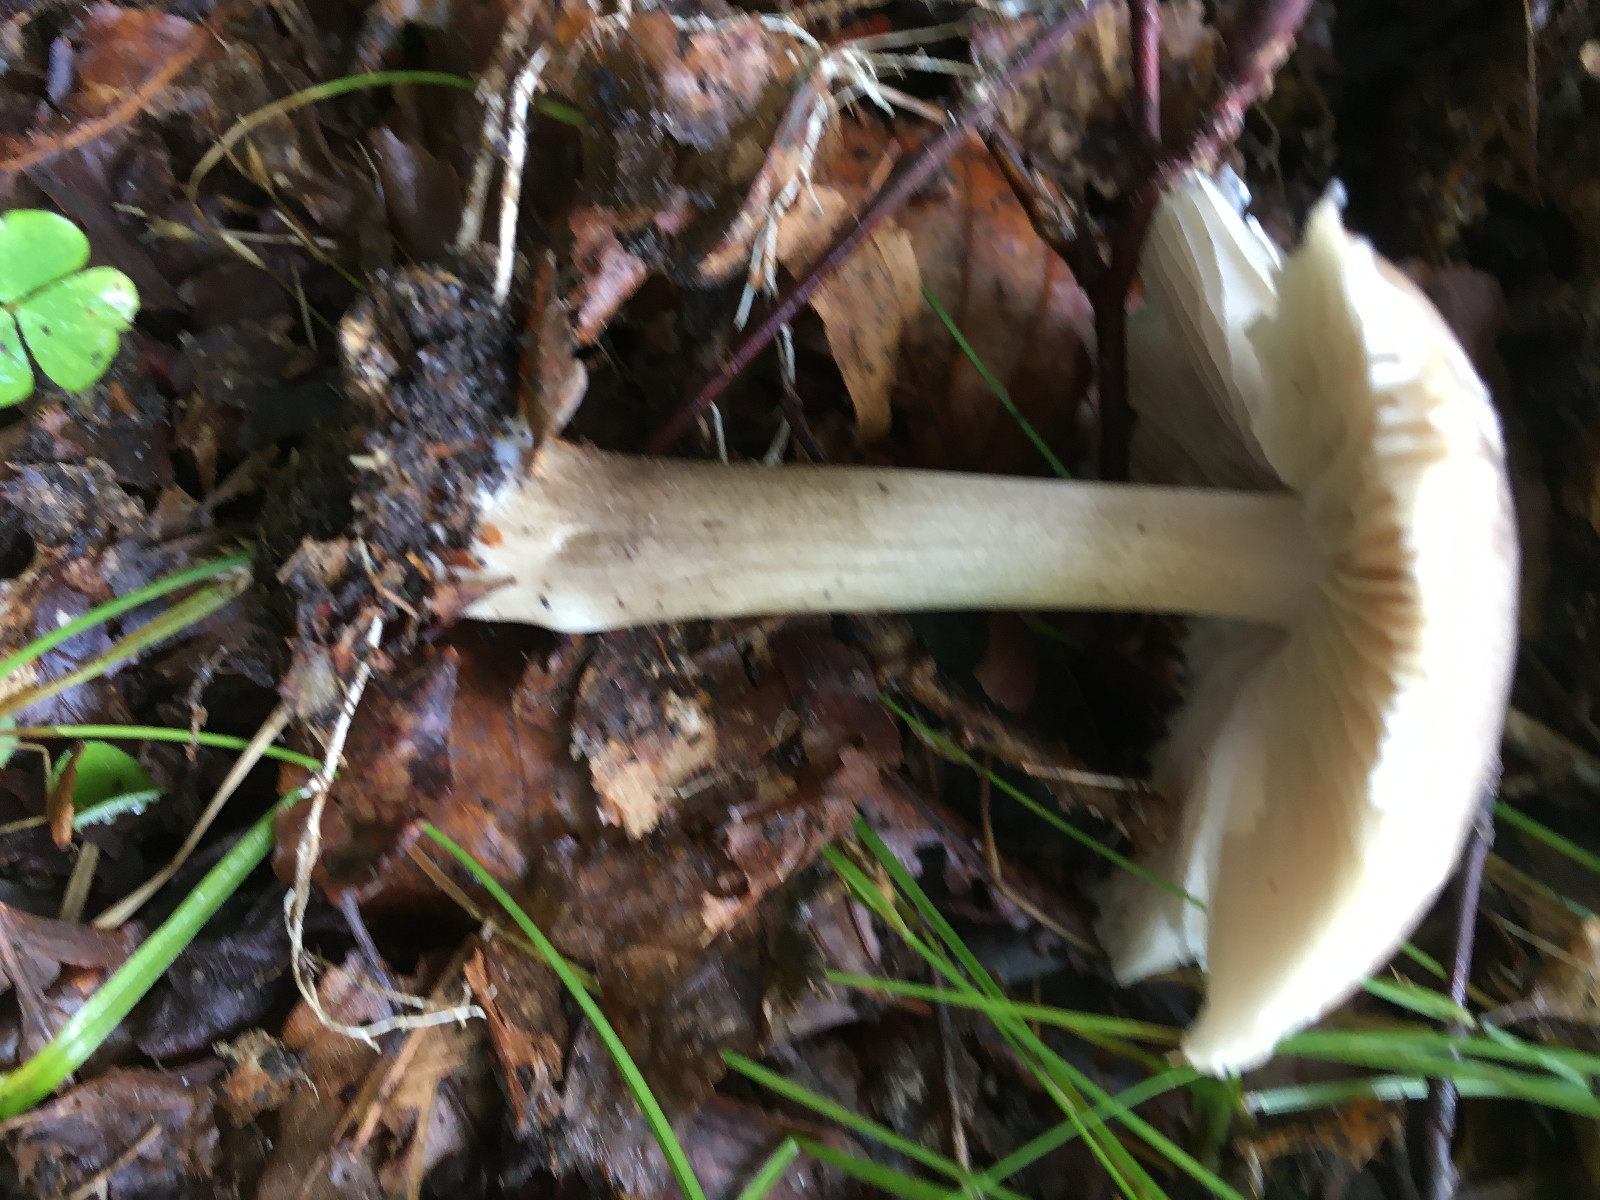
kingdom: Fungi
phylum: Basidiomycota
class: Agaricomycetes
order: Agaricales
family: Tricholomataceae
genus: Megacollybia
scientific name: Megacollybia platyphylla
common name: bredbladet væbnerhat
